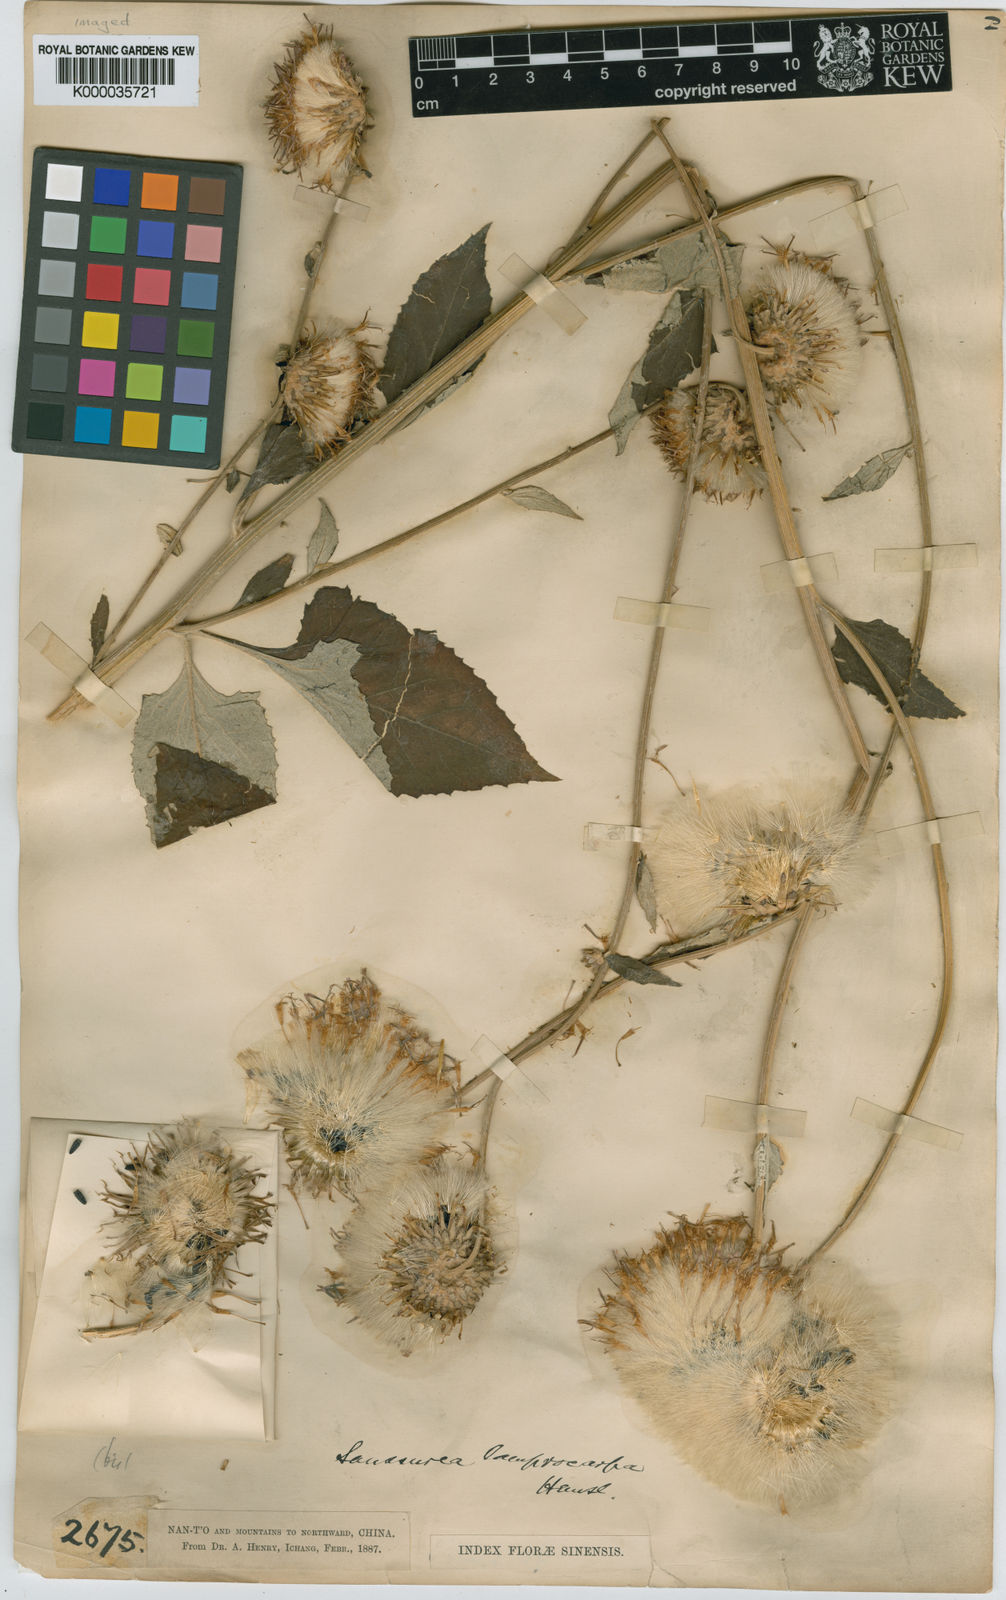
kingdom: Plantae
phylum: Tracheophyta
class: Magnoliopsida
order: Asterales
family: Asteraceae
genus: Saussurea
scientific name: Saussurea
